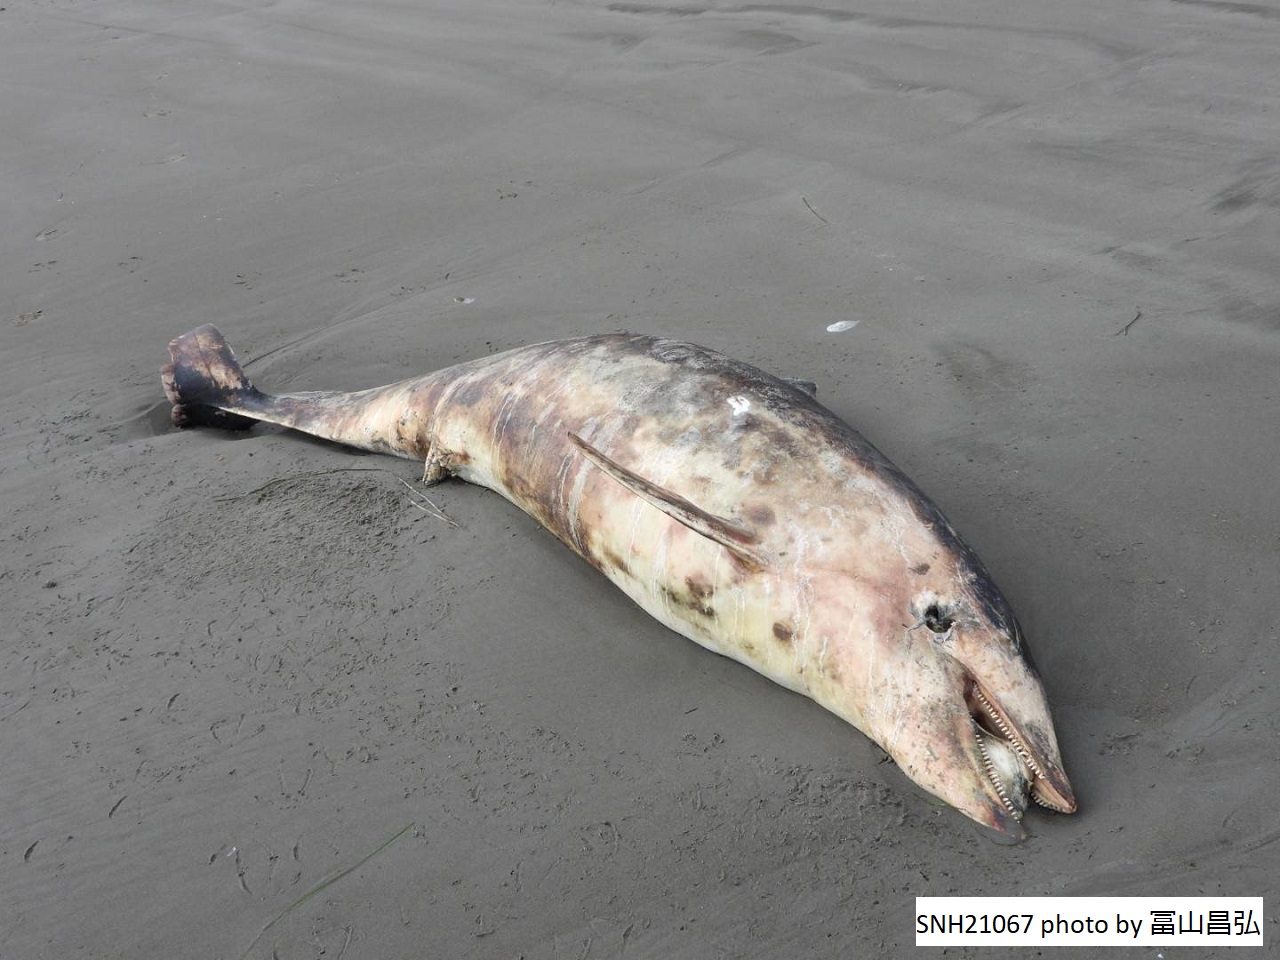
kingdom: Animalia
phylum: Chordata
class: Mammalia
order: Cetacea
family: Delphinidae
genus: Lagenorhynchus
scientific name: Lagenorhynchus obliquidens
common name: Pacific white-sided dolphin
